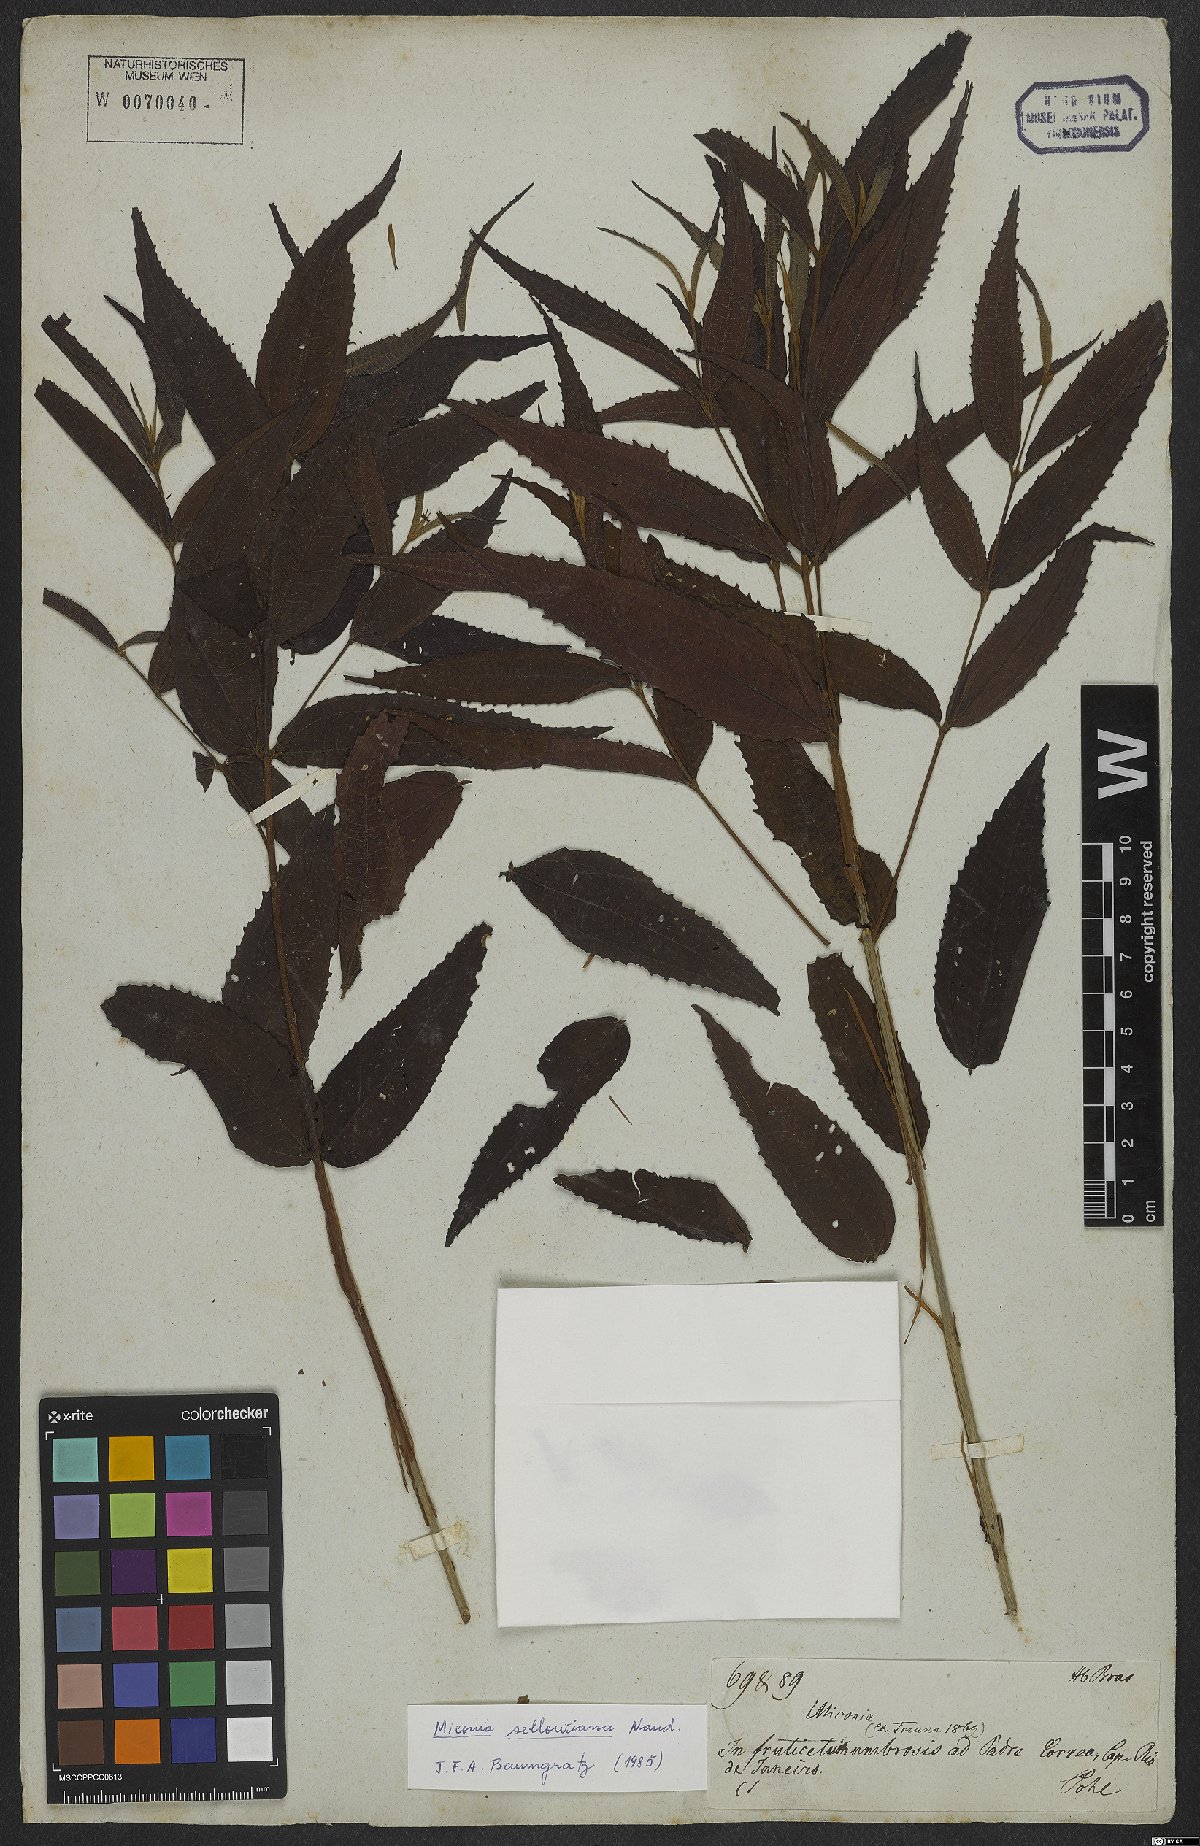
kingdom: Plantae
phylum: Tracheophyta
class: Magnoliopsida
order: Myrtales
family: Melastomataceae
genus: Miconia
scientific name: Miconia sellowiana
